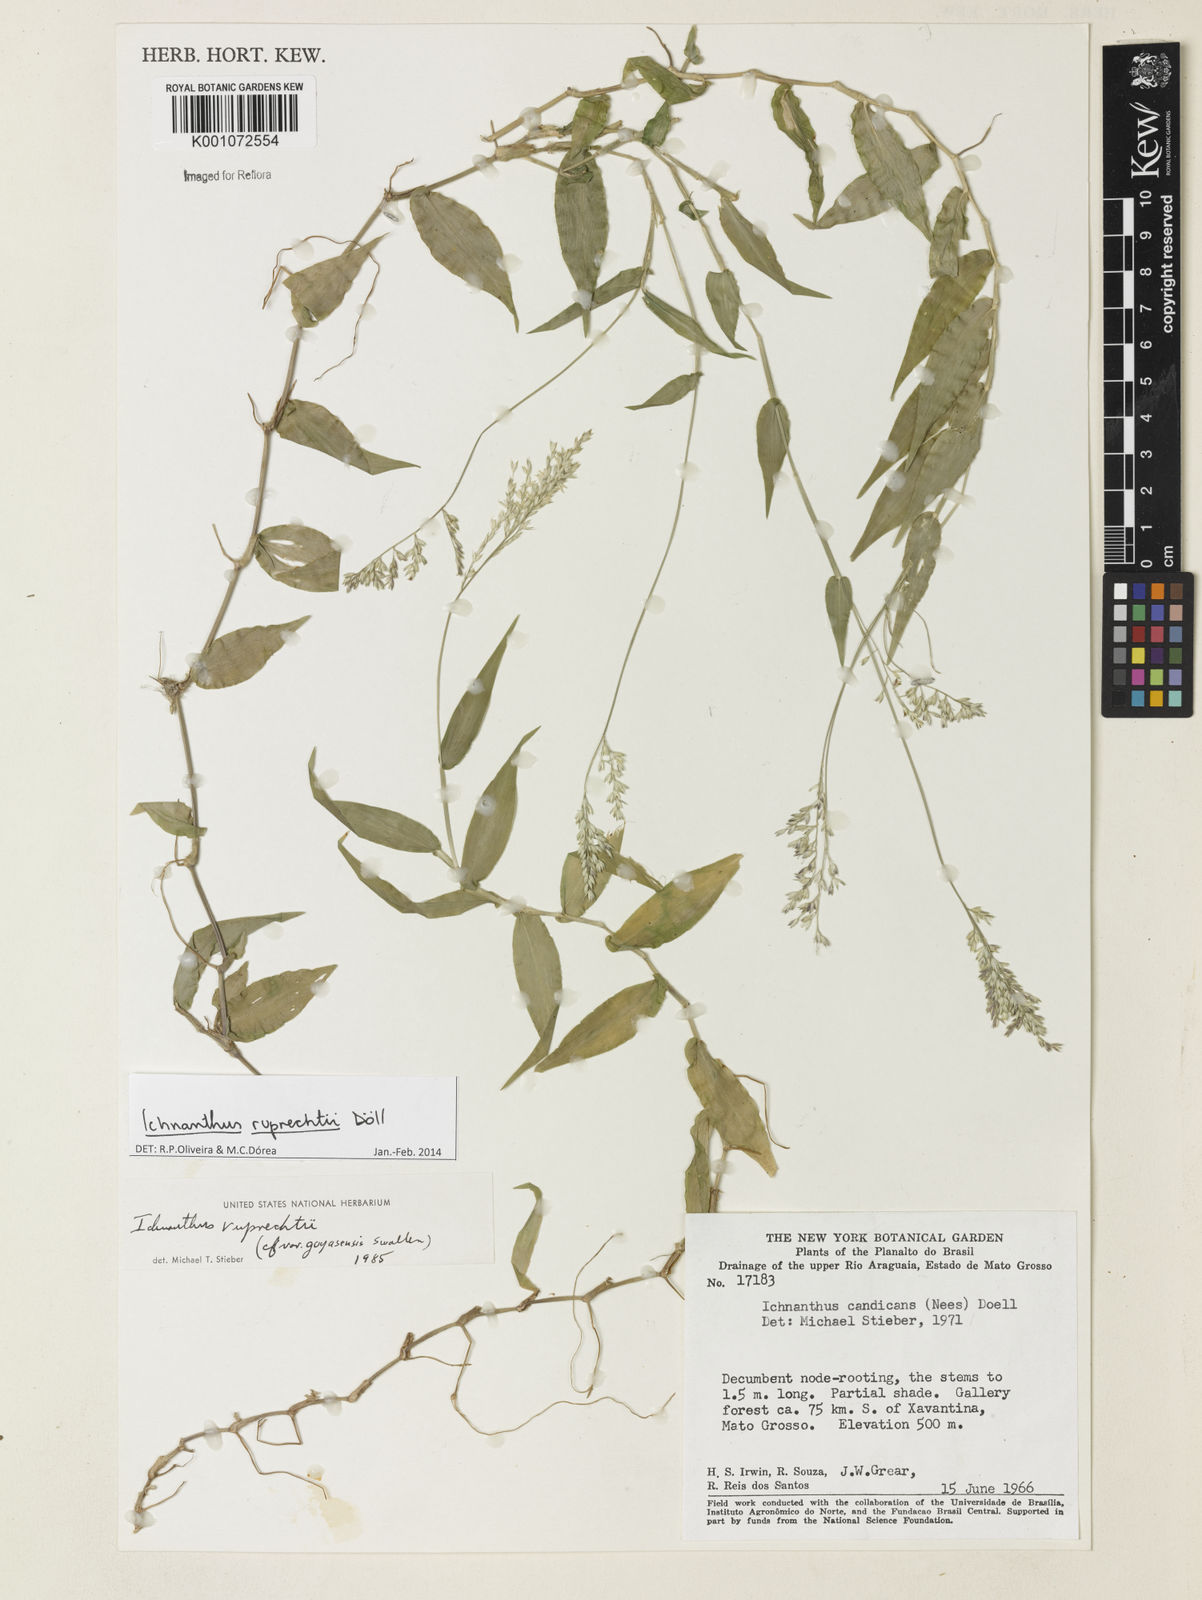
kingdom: Plantae
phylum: Tracheophyta
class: Liliopsida
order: Poales
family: Poaceae
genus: Ichnanthus
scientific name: Ichnanthus
